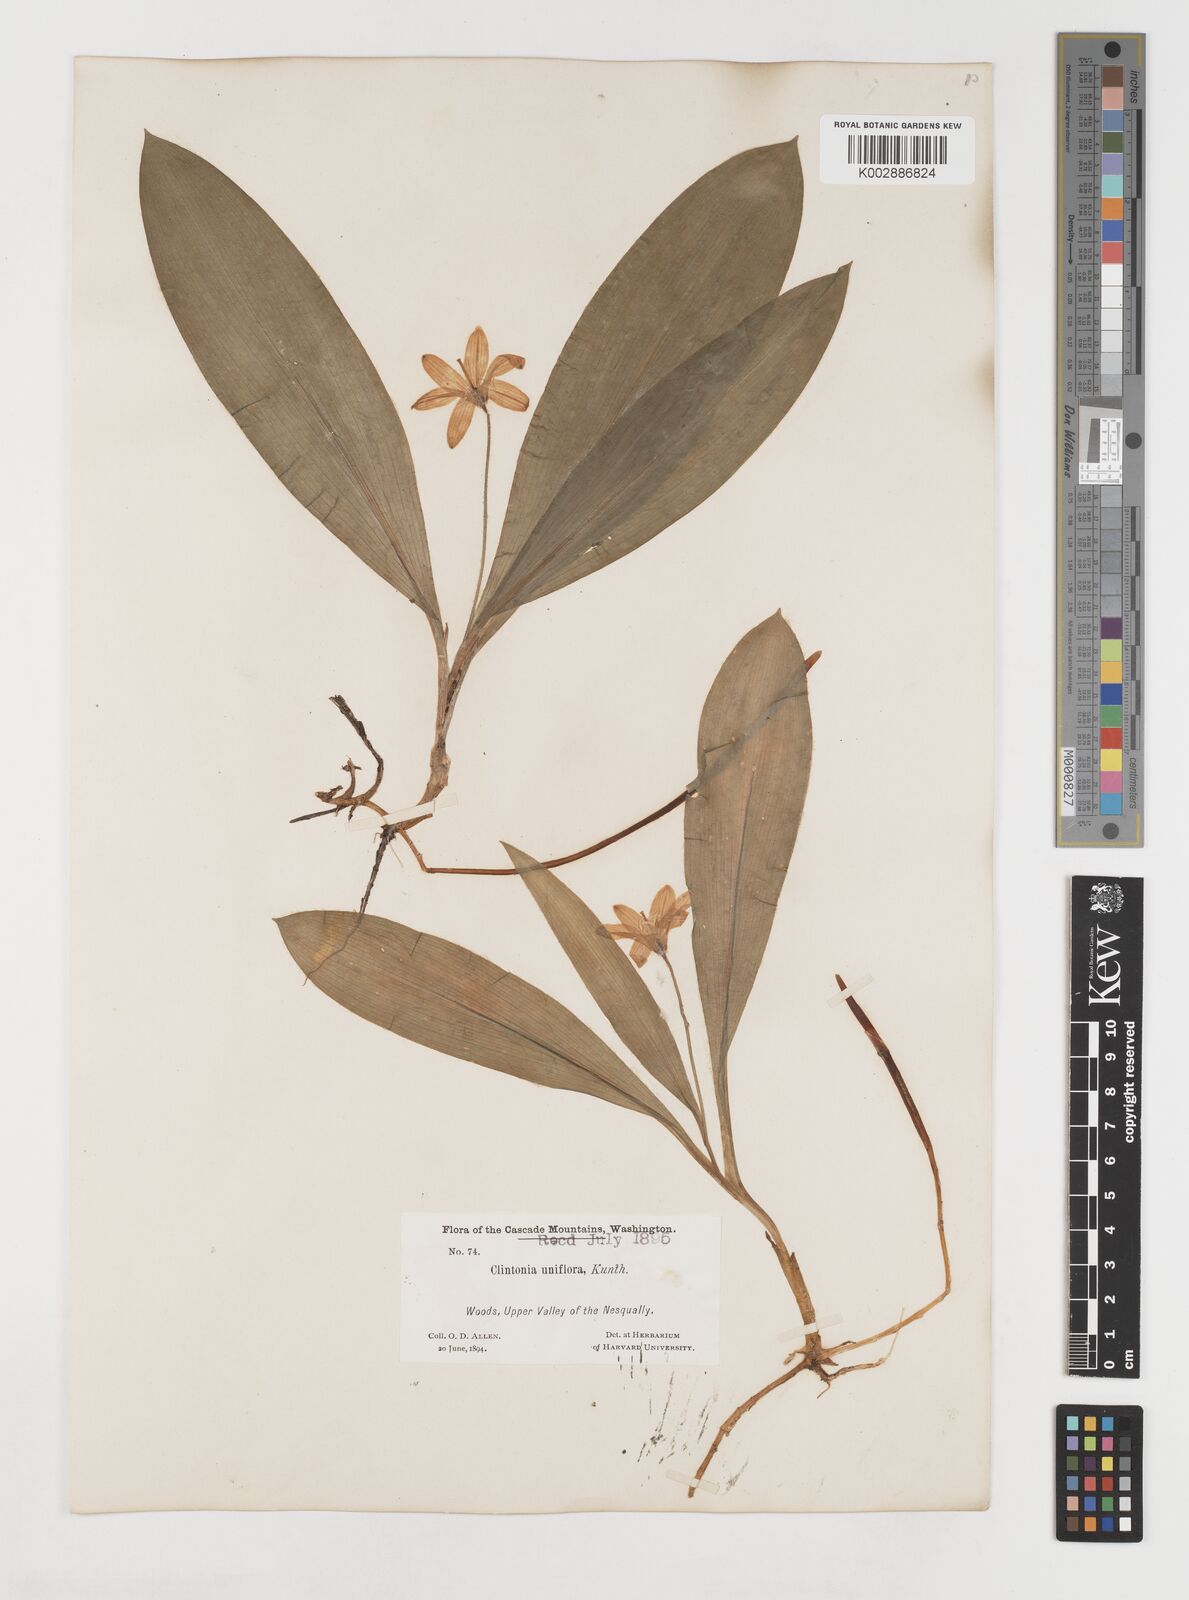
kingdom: Plantae
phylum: Tracheophyta
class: Liliopsida
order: Liliales
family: Liliaceae
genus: Clintonia
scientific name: Clintonia uniflora
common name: Queen's cup
